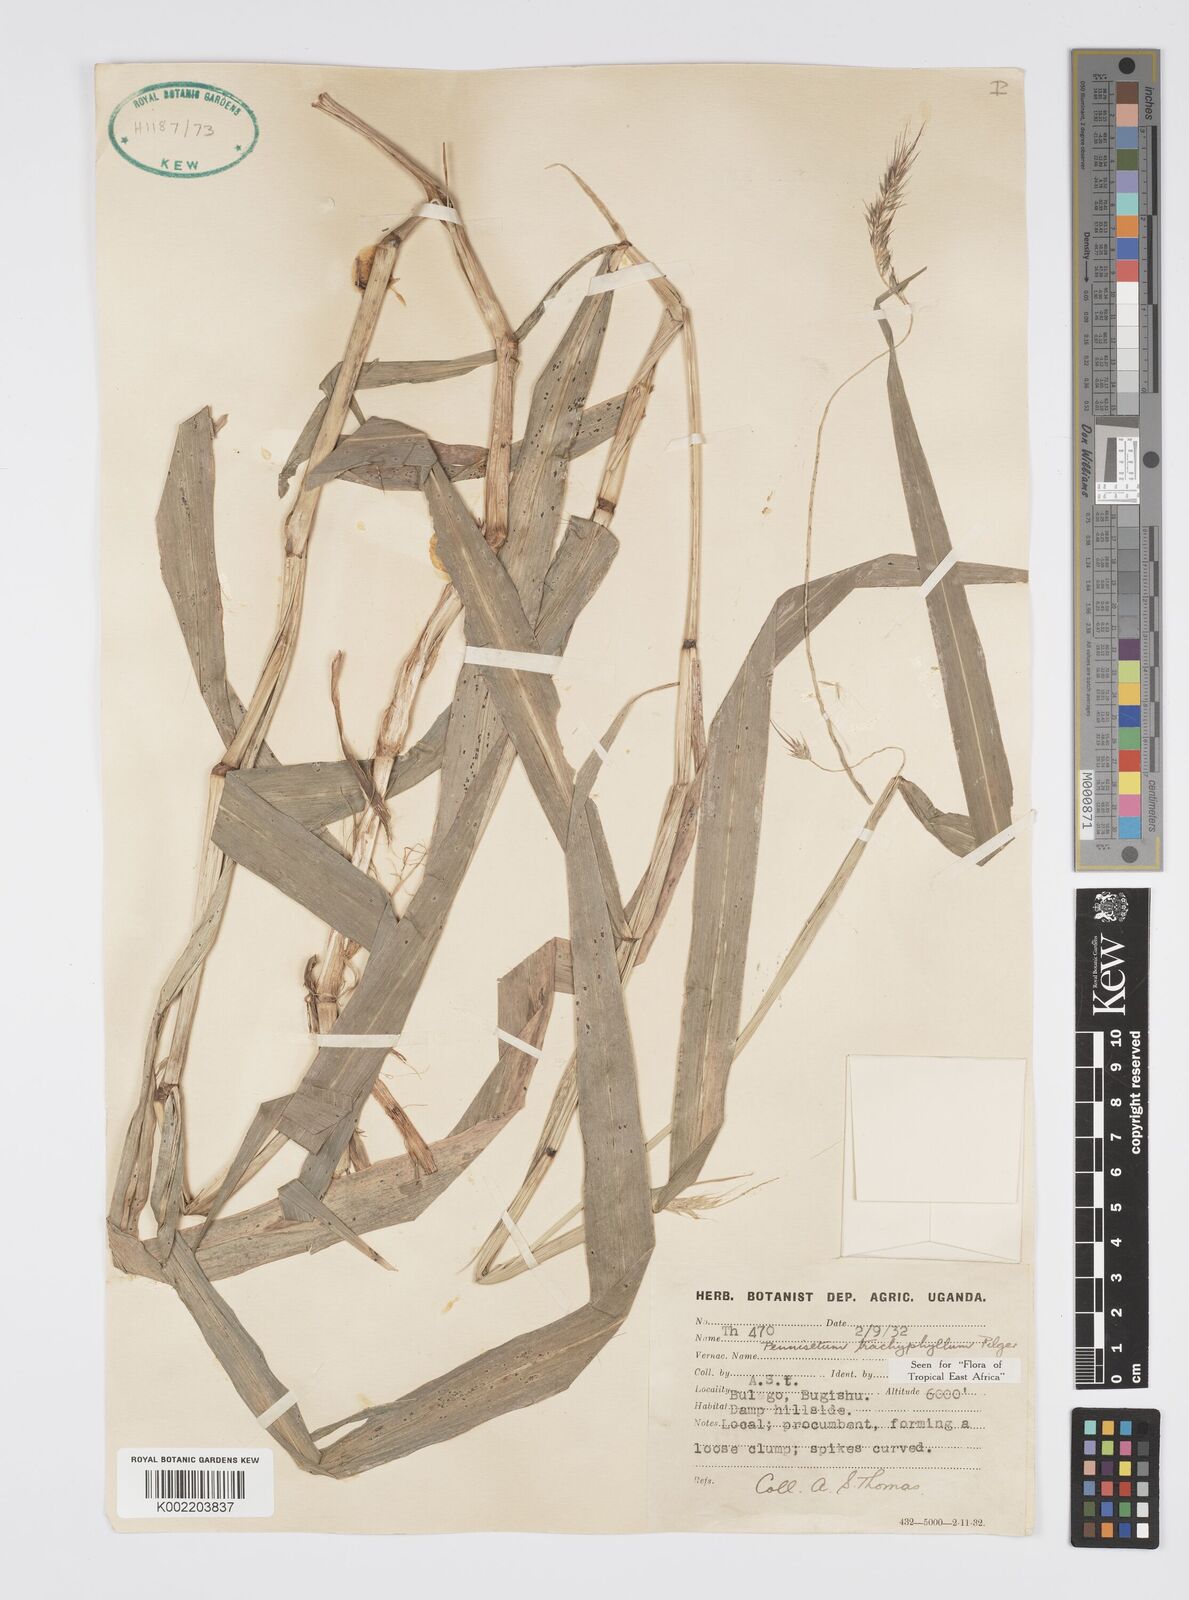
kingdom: Plantae
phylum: Tracheophyta
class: Liliopsida
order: Poales
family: Poaceae
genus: Cenchrus
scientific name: Cenchrus trachyphyllus
